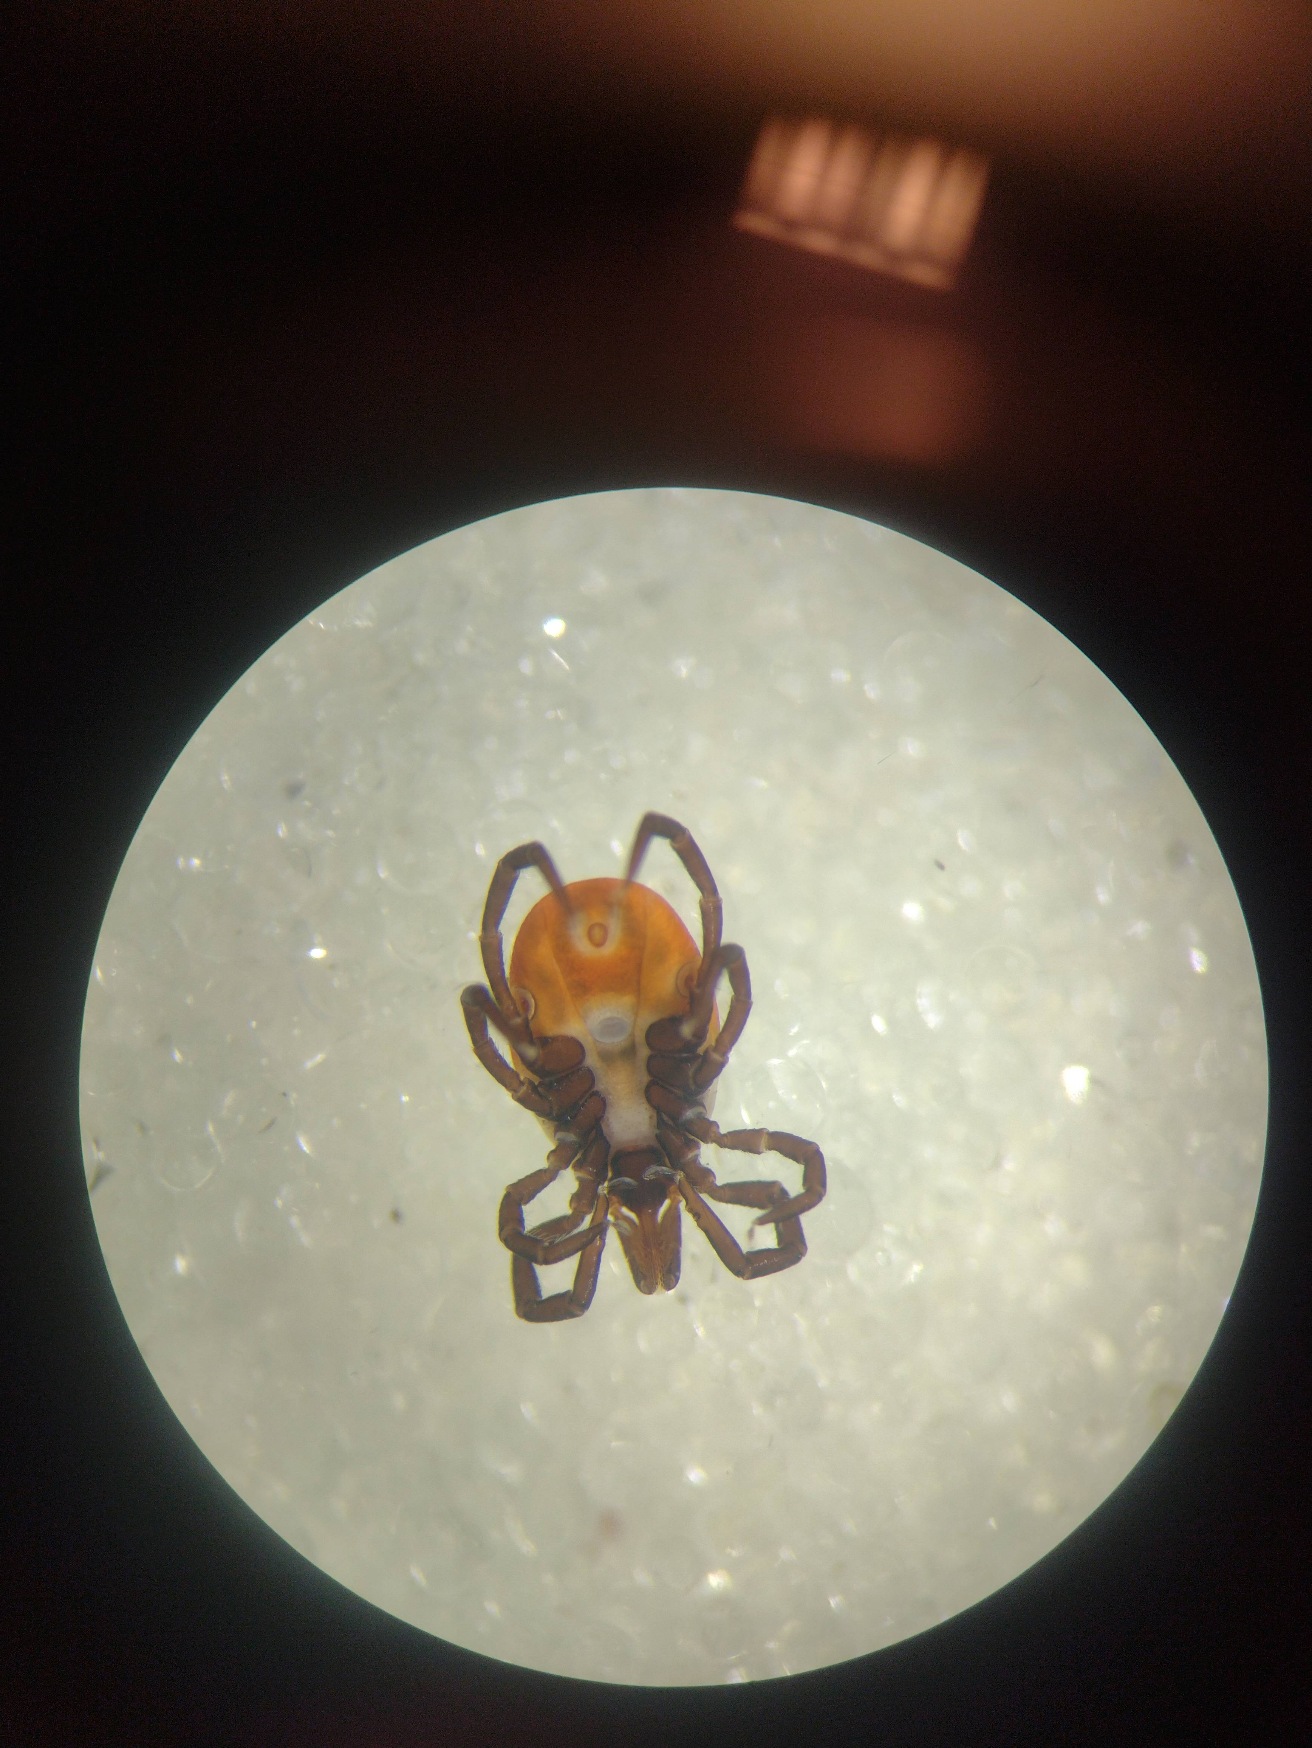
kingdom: Animalia
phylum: Arthropoda
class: Arachnida
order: Ixodida
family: Ixodidae
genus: Ixodes
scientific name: Ixodes ricinus
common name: Skovflåt
